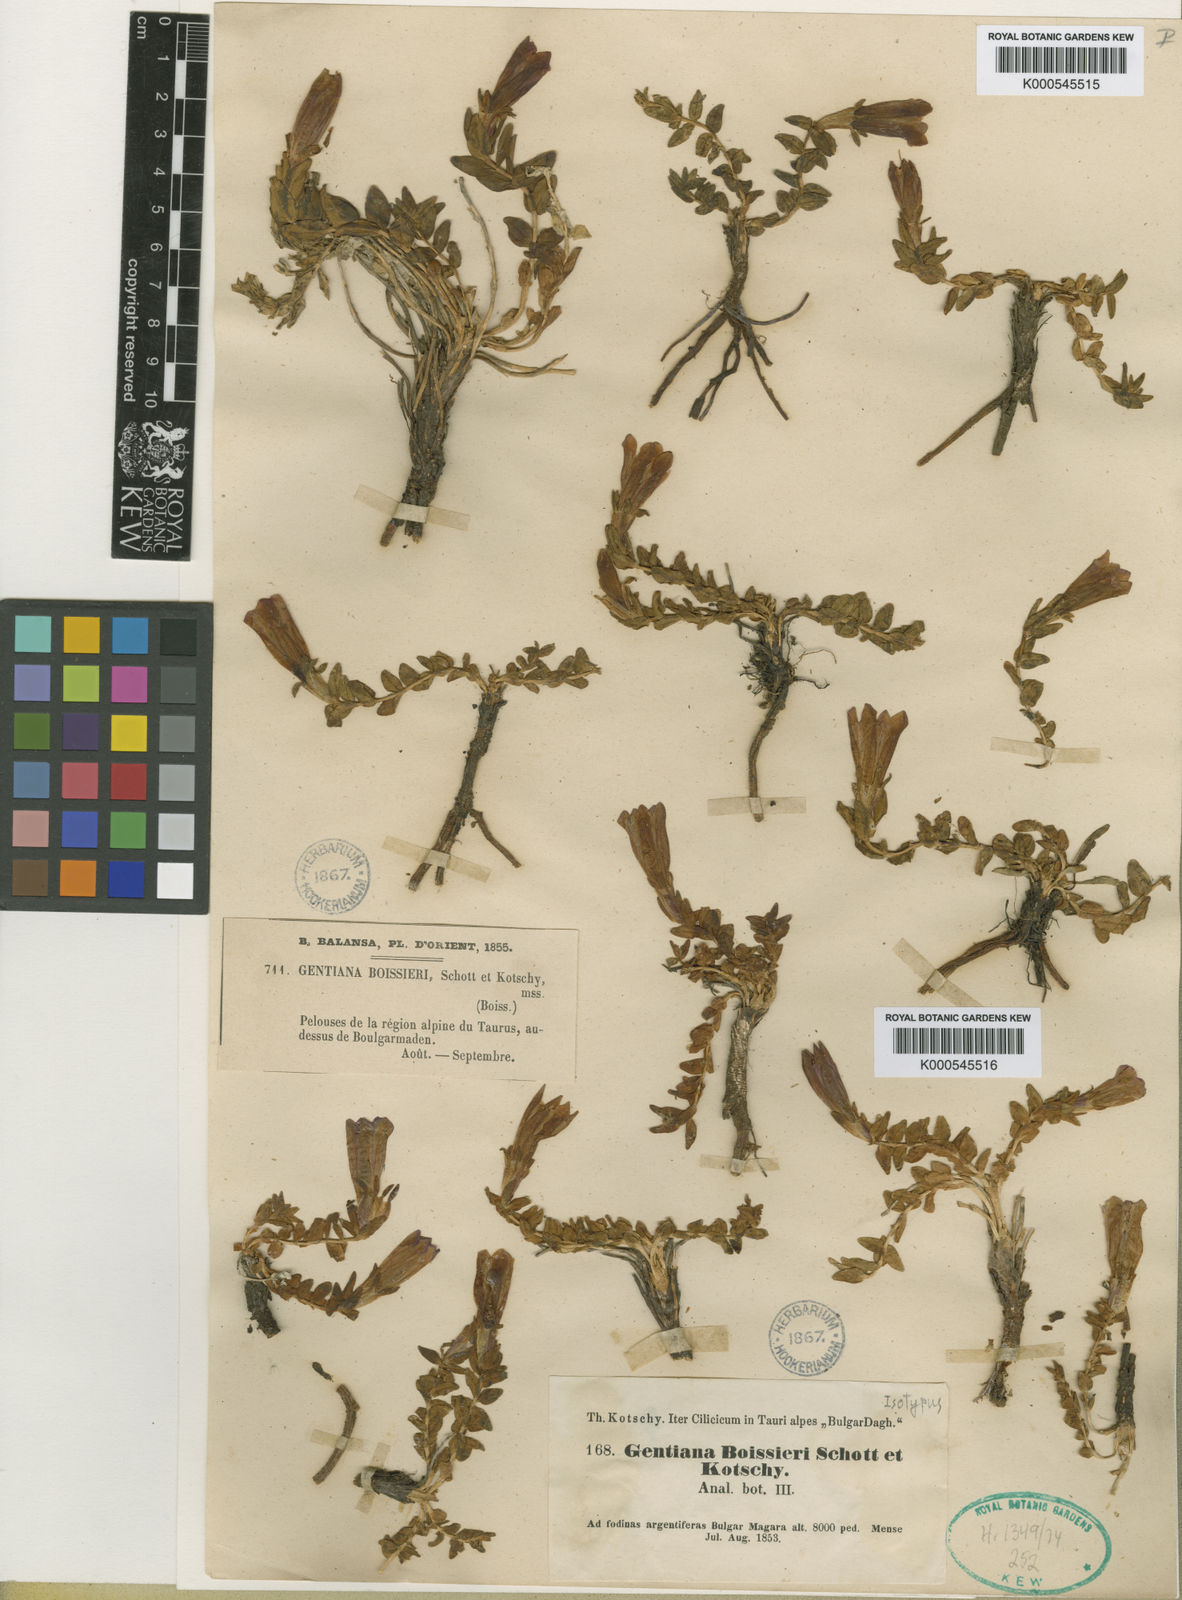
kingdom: Plantae
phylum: Tracheophyta
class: Magnoliopsida
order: Gentianales
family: Gentianaceae
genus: Gentiana
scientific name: Gentiana boissieri
